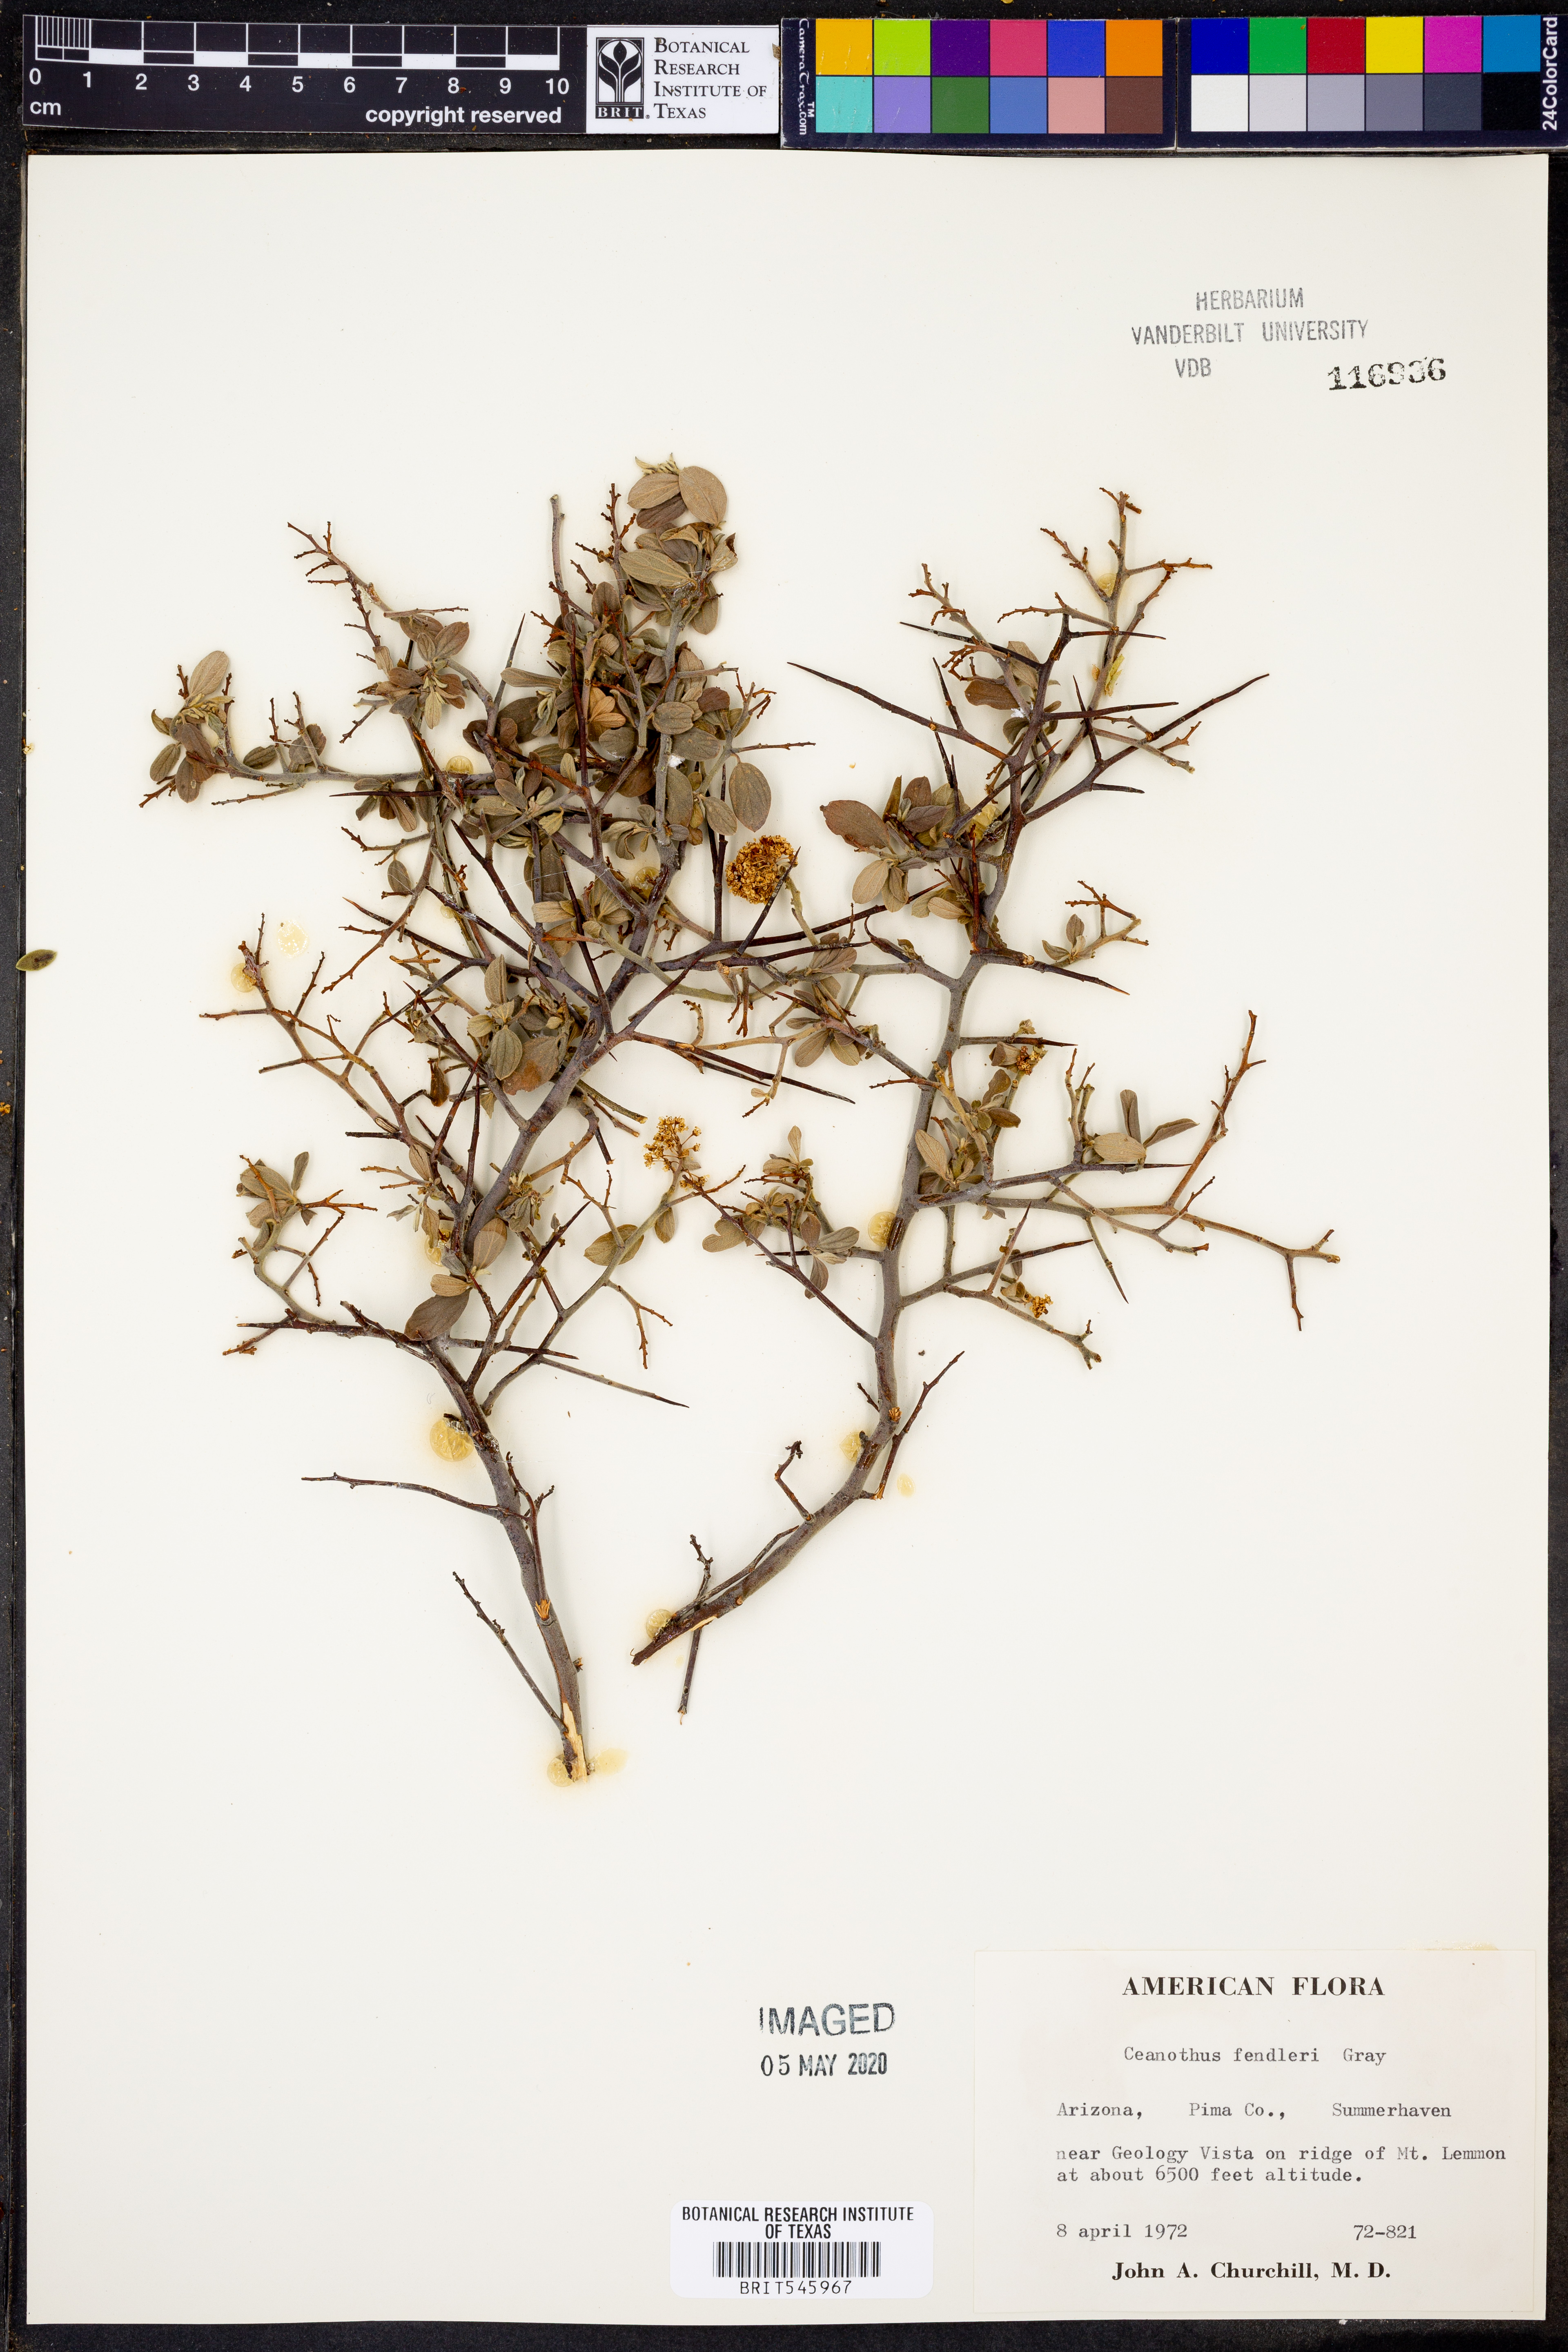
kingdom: Plantae
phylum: Tracheophyta
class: Magnoliopsida
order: Rosales
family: Rhamnaceae
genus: Ceanothus
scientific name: Ceanothus fendleri
